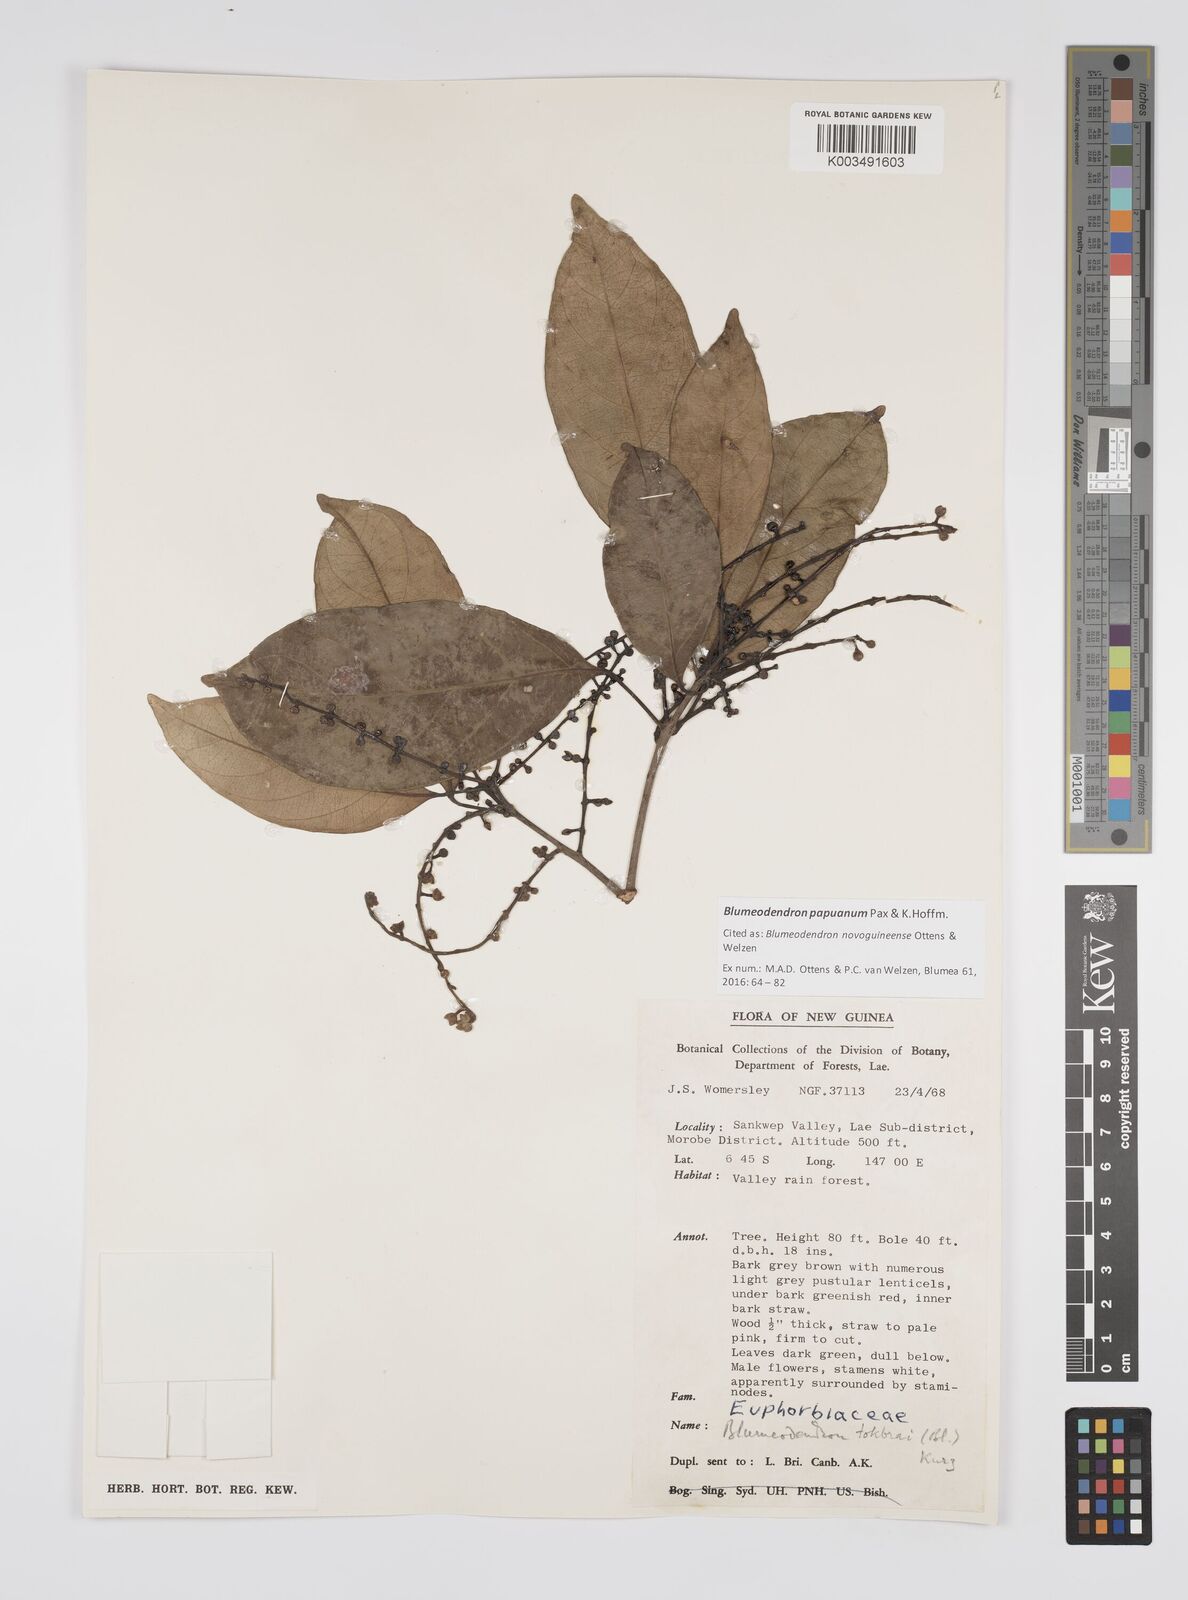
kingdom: Plantae
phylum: Tracheophyta
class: Magnoliopsida
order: Malpighiales
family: Euphorbiaceae
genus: Blumeodendron
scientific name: Blumeodendron papuanum
